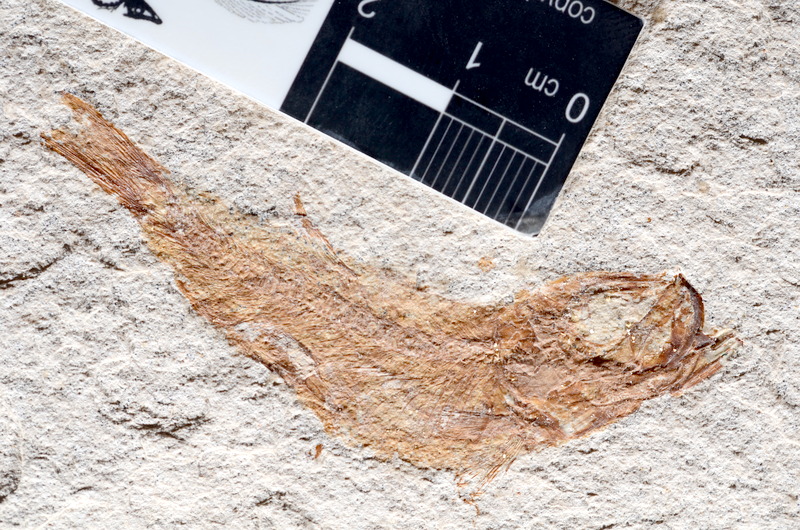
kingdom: Animalia
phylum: Chordata
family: Ascalaboidae
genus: Tharsis
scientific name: Tharsis dubius
